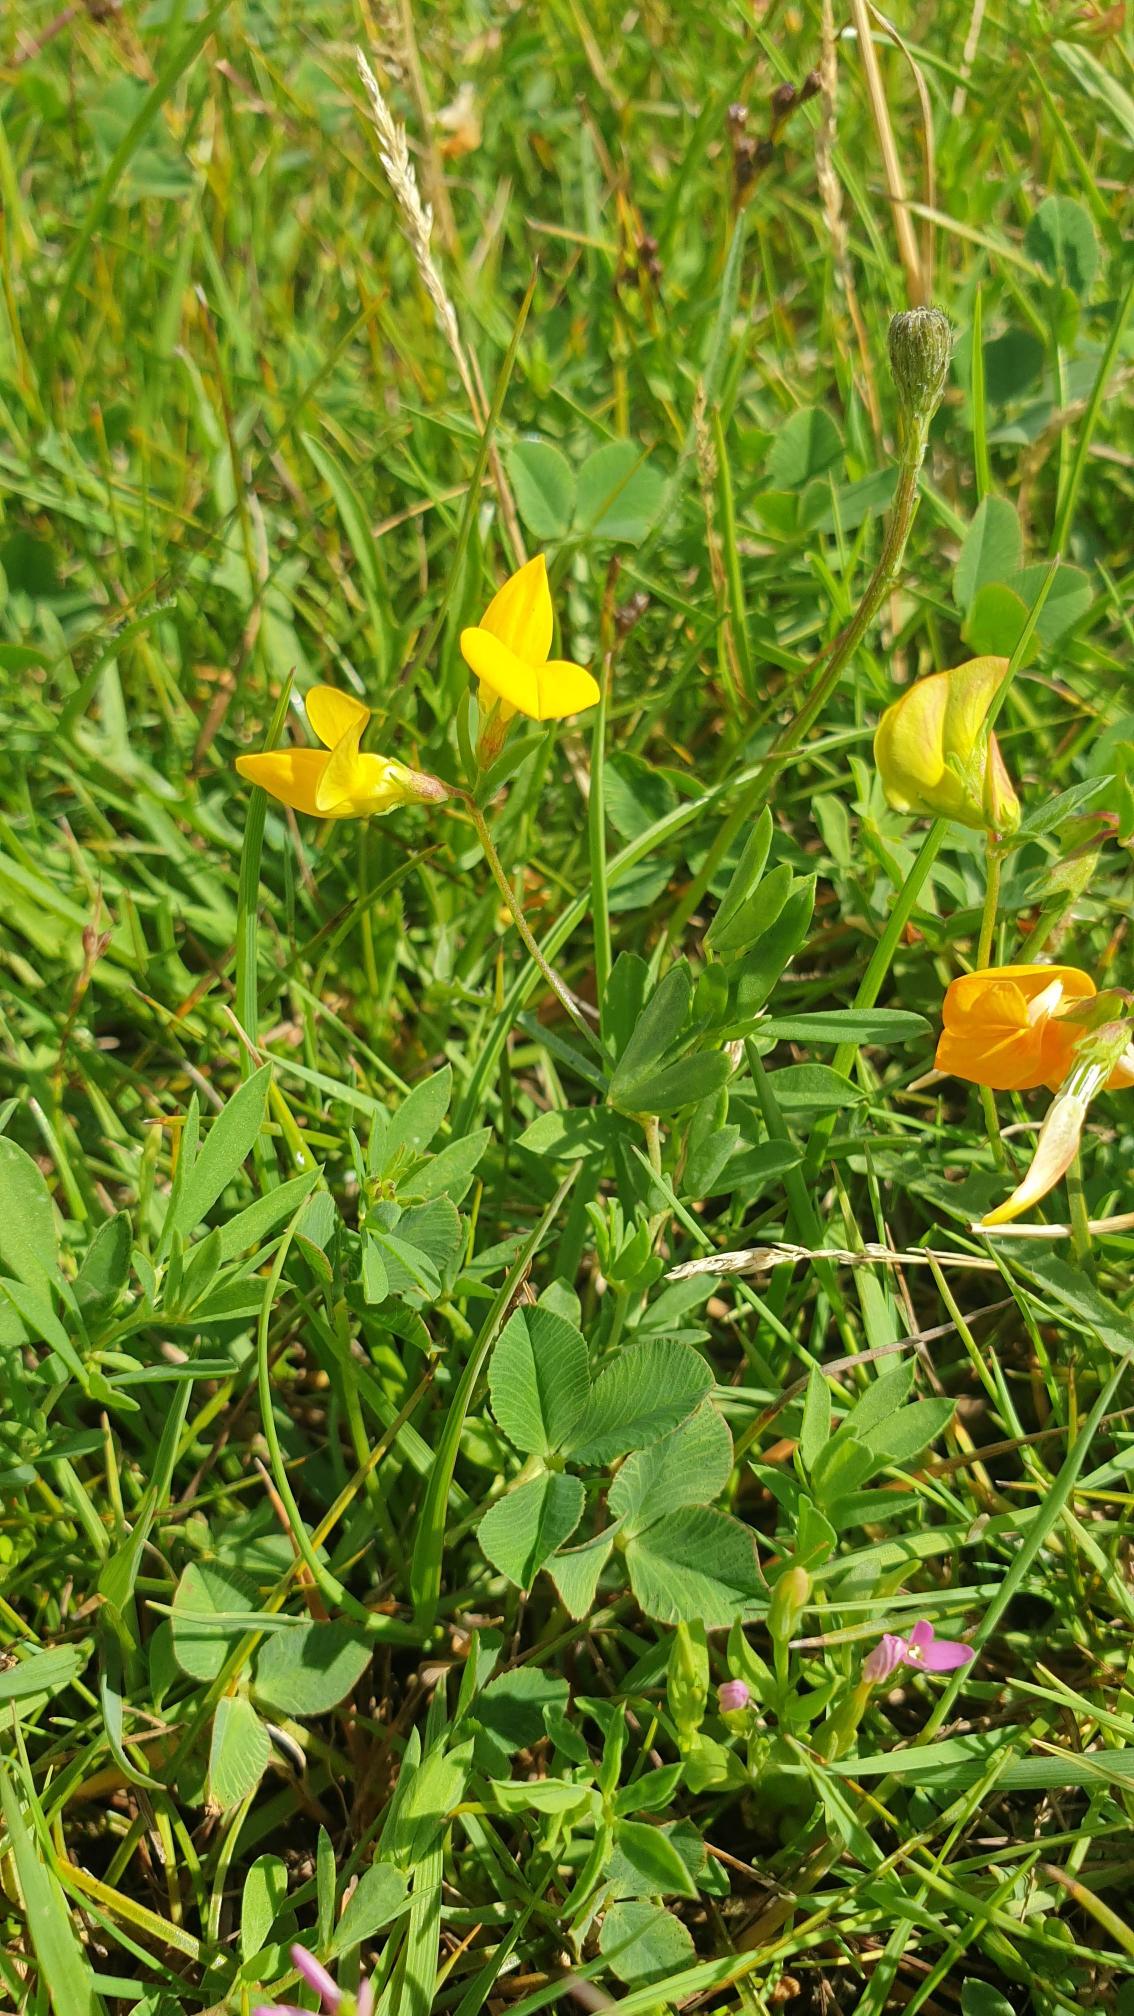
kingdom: Plantae
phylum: Tracheophyta
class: Magnoliopsida
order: Fabales
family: Fabaceae
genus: Lotus
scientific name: Lotus tenuis
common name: Smalbladet kællingetand
